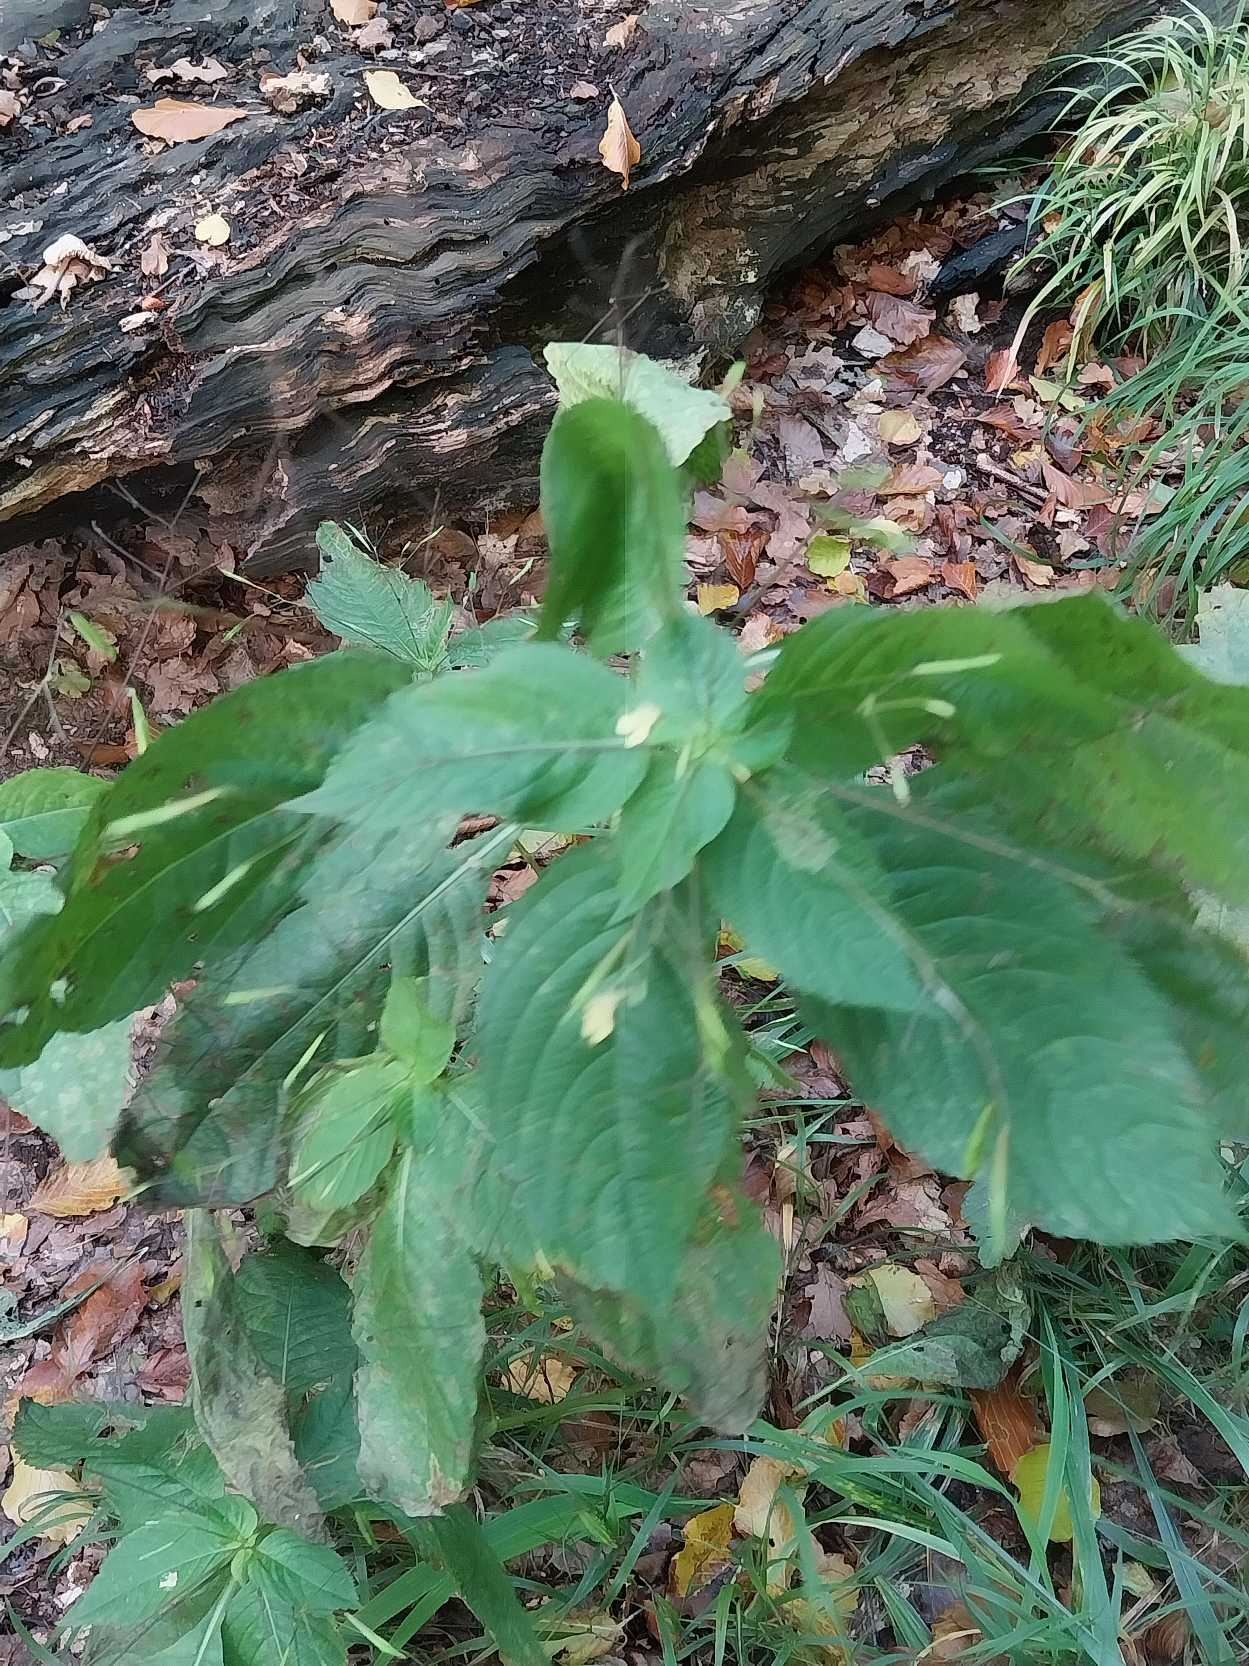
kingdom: Plantae
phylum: Tracheophyta
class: Magnoliopsida
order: Ericales
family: Balsaminaceae
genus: Impatiens
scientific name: Impatiens parviflora
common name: Småblomstret balsamin
